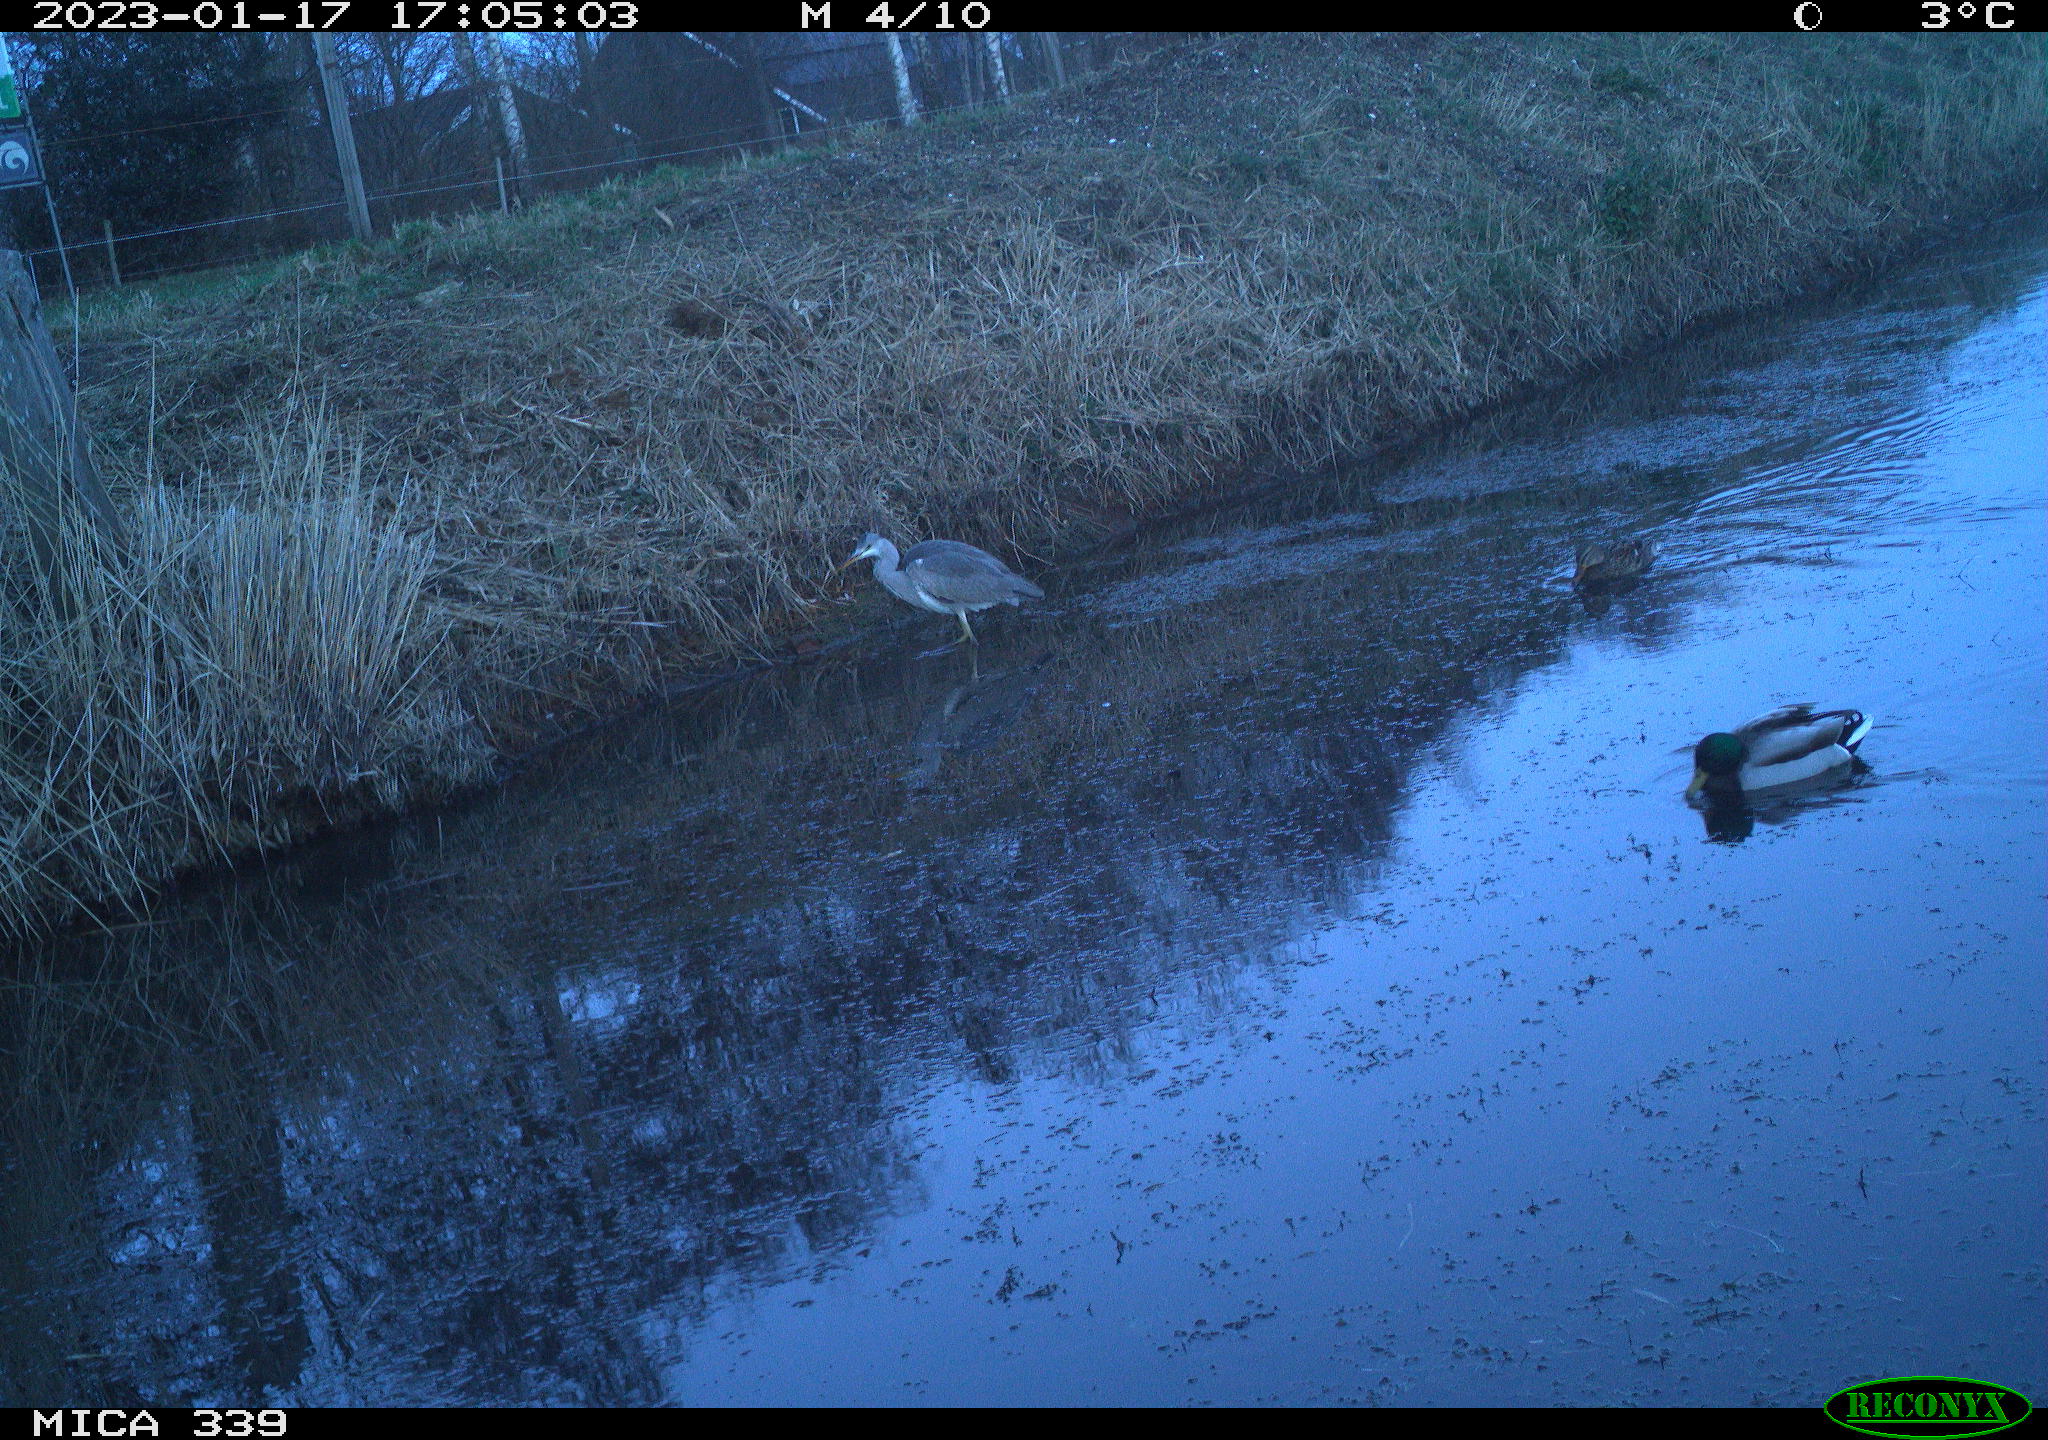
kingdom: Animalia
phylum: Chordata
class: Aves
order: Anseriformes
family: Anatidae
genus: Anas
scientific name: Anas
